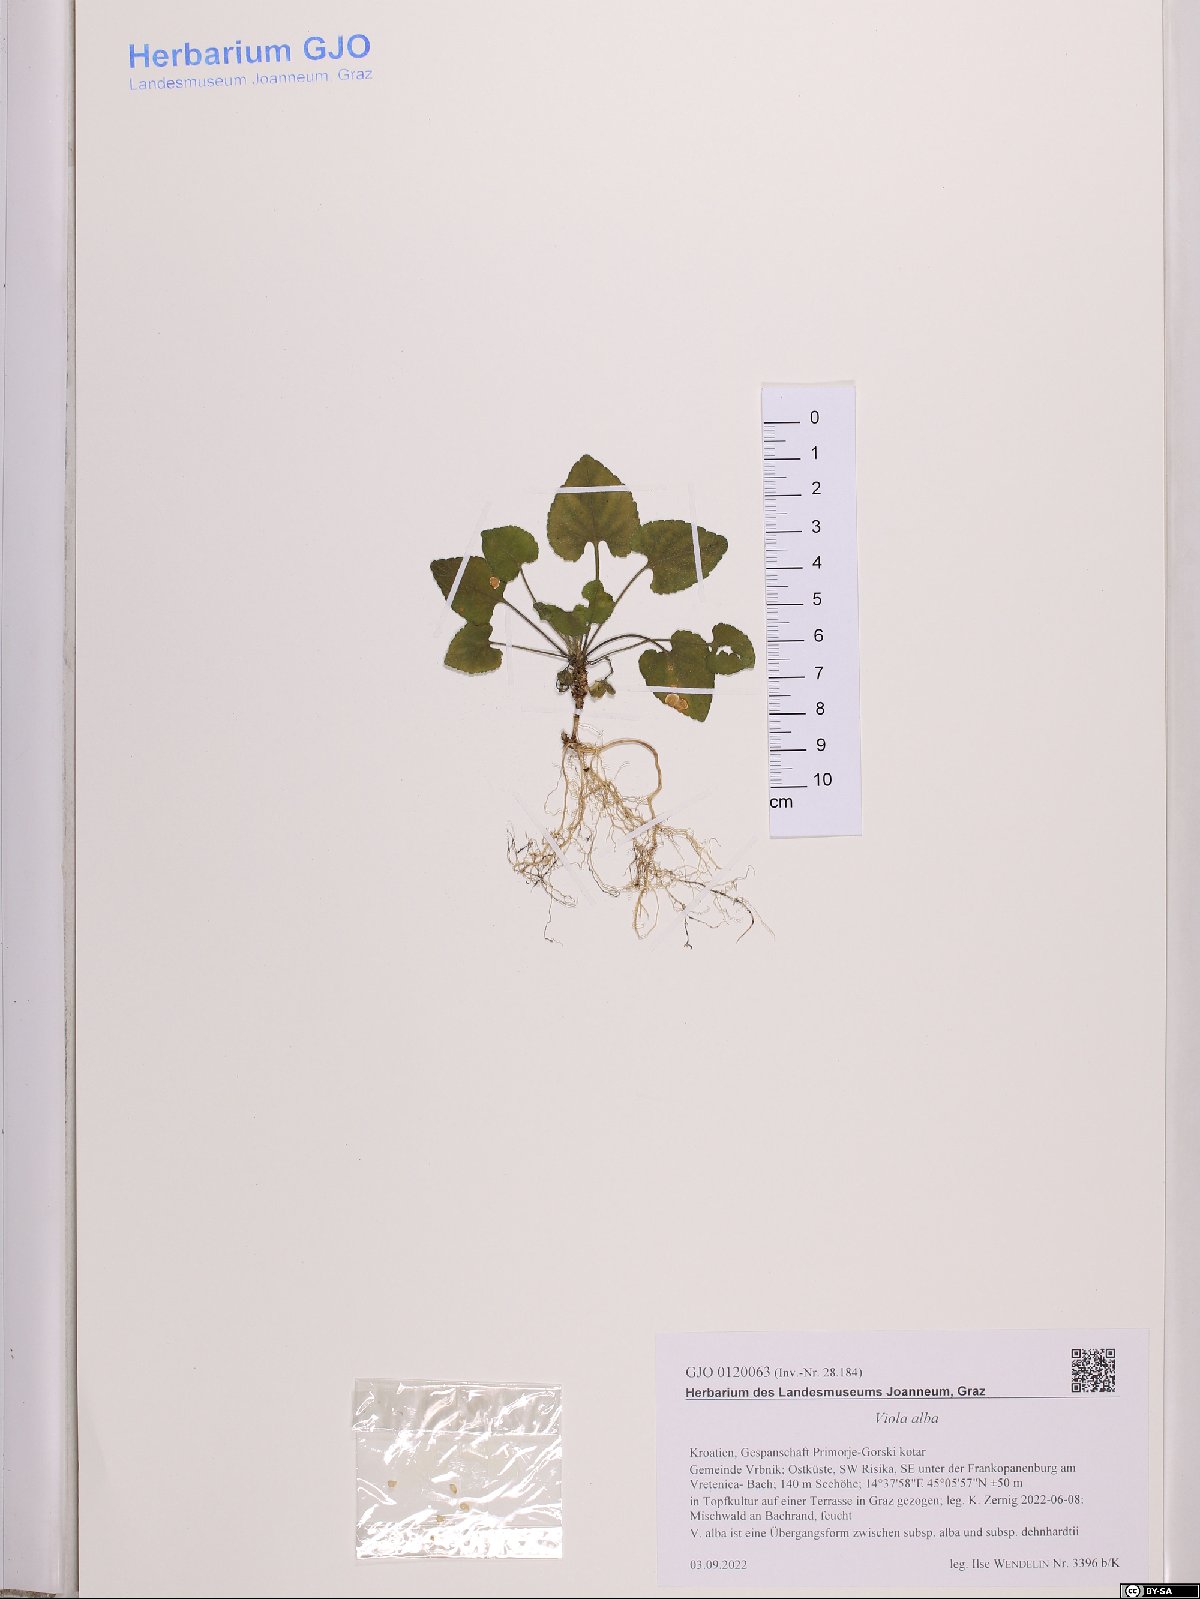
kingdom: Plantae
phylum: Tracheophyta
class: Magnoliopsida
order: Malpighiales
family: Violaceae
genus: Viola
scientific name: Viola alba
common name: White violet
